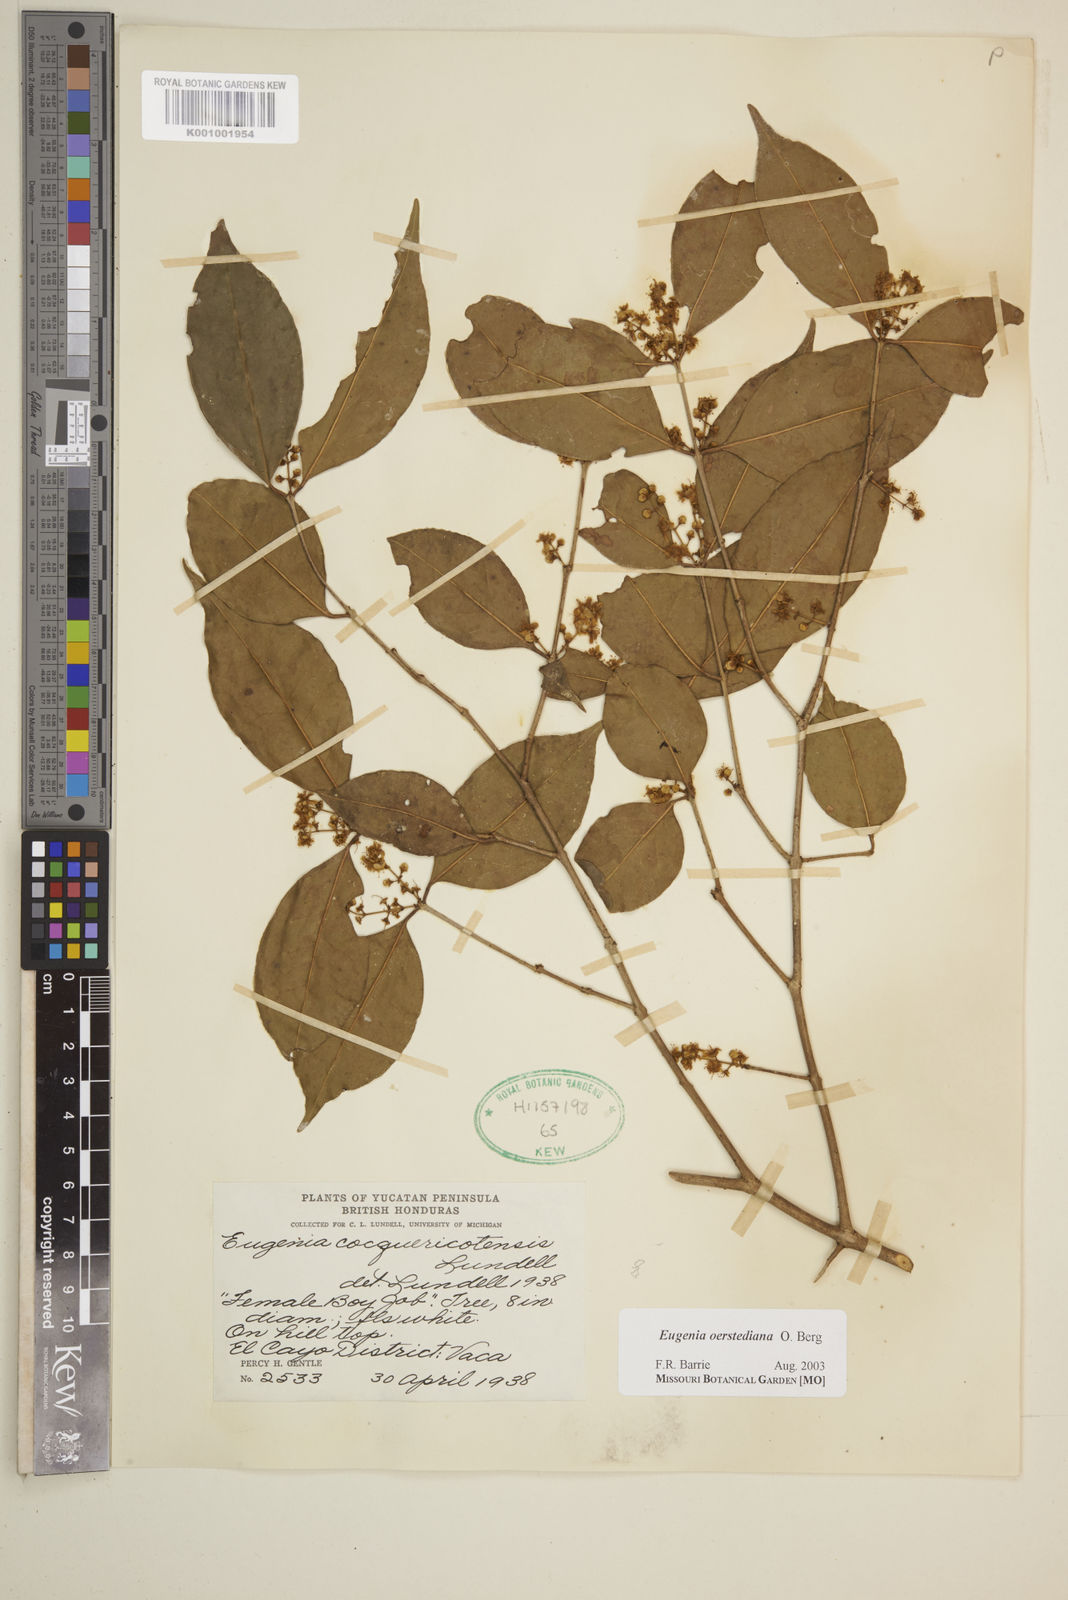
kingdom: Plantae
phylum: Tracheophyta
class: Magnoliopsida
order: Myrtales
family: Myrtaceae
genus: Eugenia
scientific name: Eugenia oerstediana
